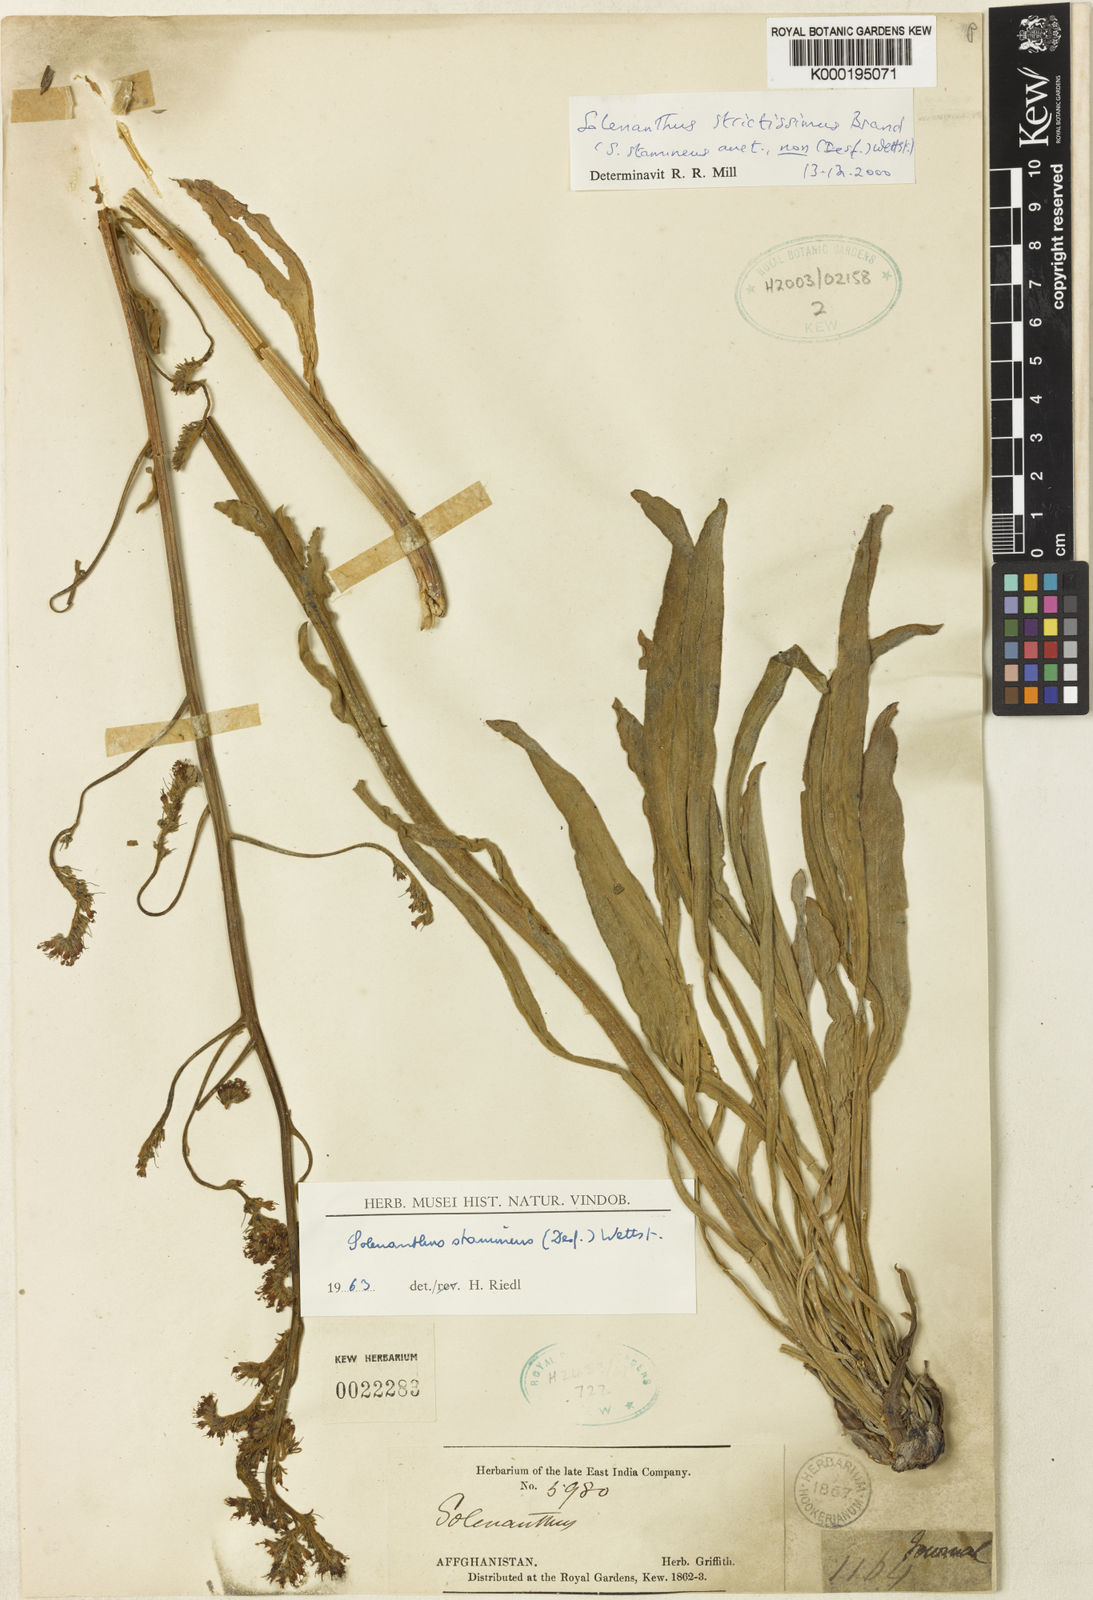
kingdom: Plantae
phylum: Tracheophyta
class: Magnoliopsida
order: Boraginales
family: Boraginaceae
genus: Solenanthus
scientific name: Solenanthus strictissimus
